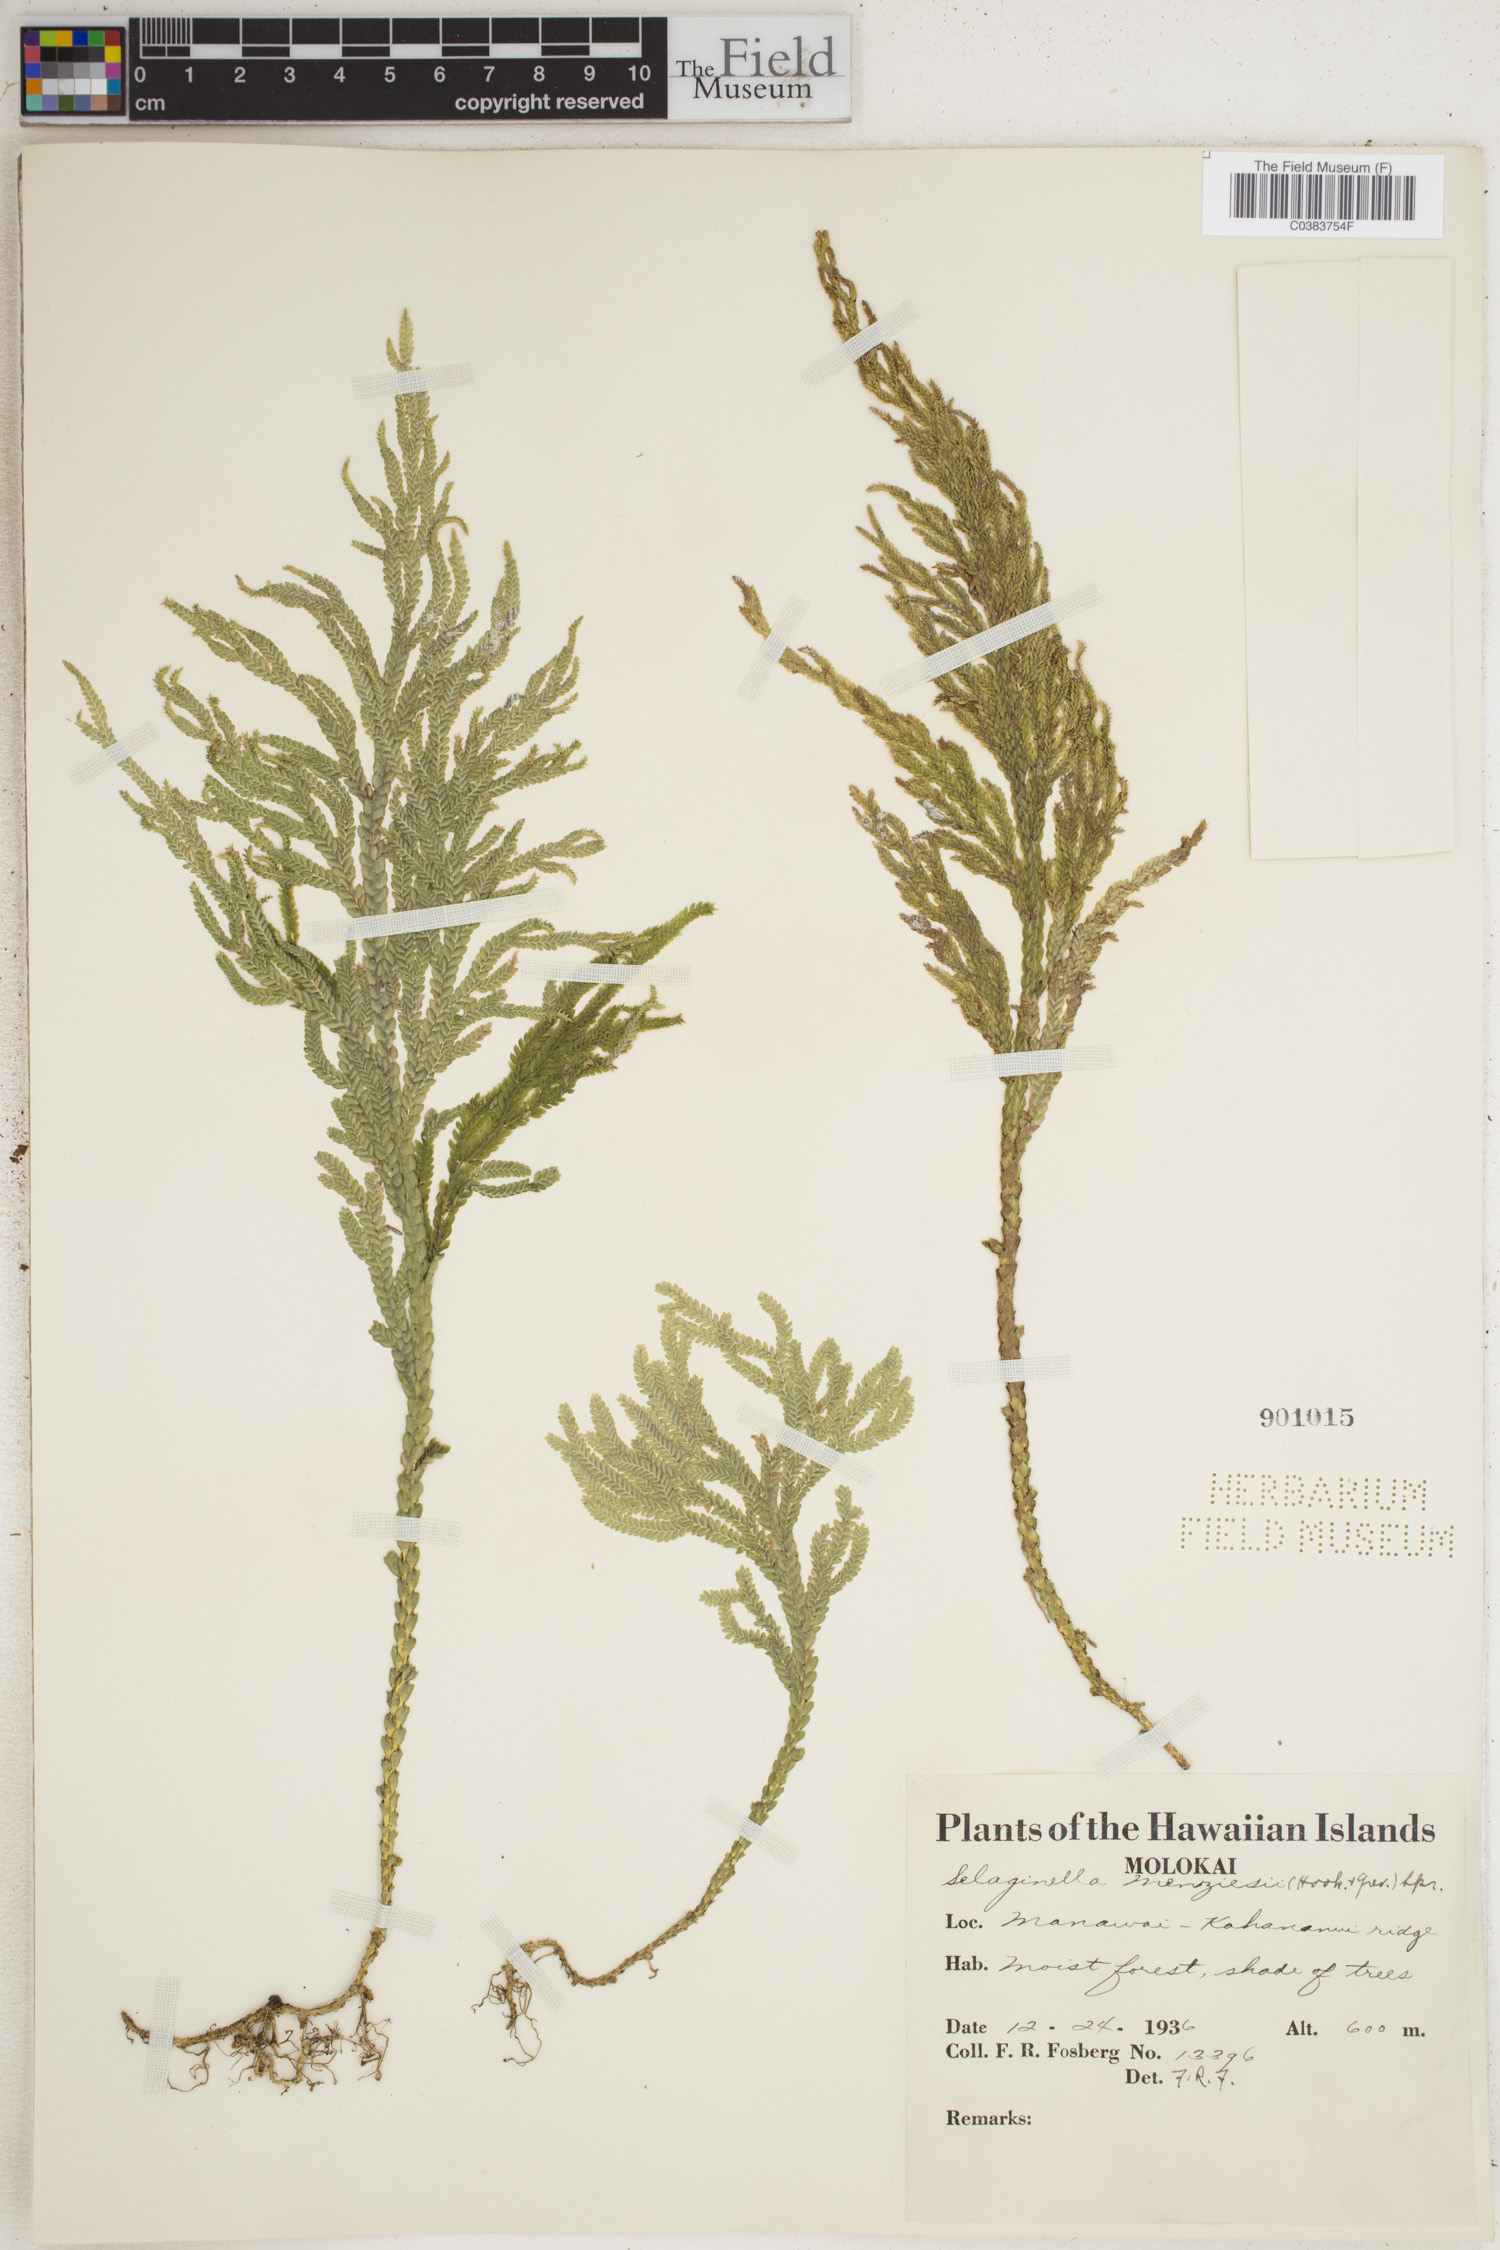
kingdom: Plantae
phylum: Tracheophyta
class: Lycopodiopsida
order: Selaginellales
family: Selaginellaceae
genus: Selaginella
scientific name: Selaginella menziesii
